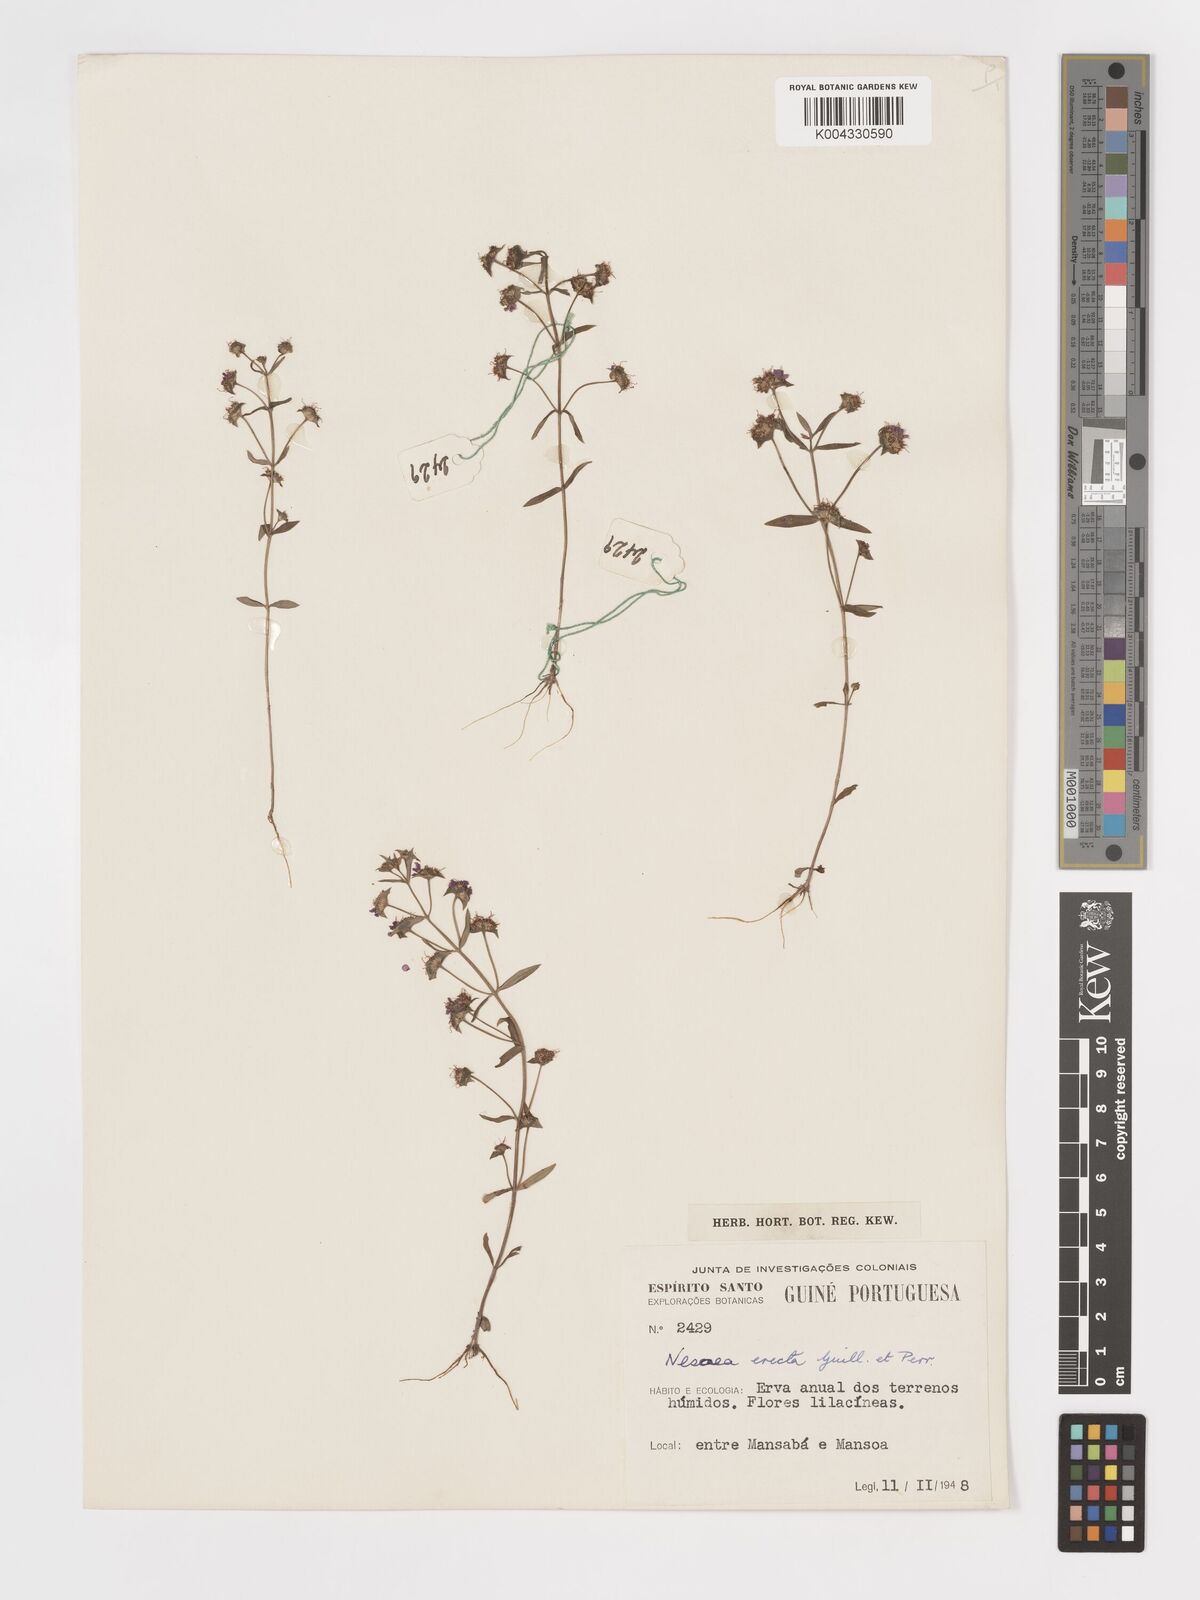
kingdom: Plantae
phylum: Tracheophyta
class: Magnoliopsida
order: Myrtales
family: Lythraceae
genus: Ammannia
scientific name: Ammannia erecta
